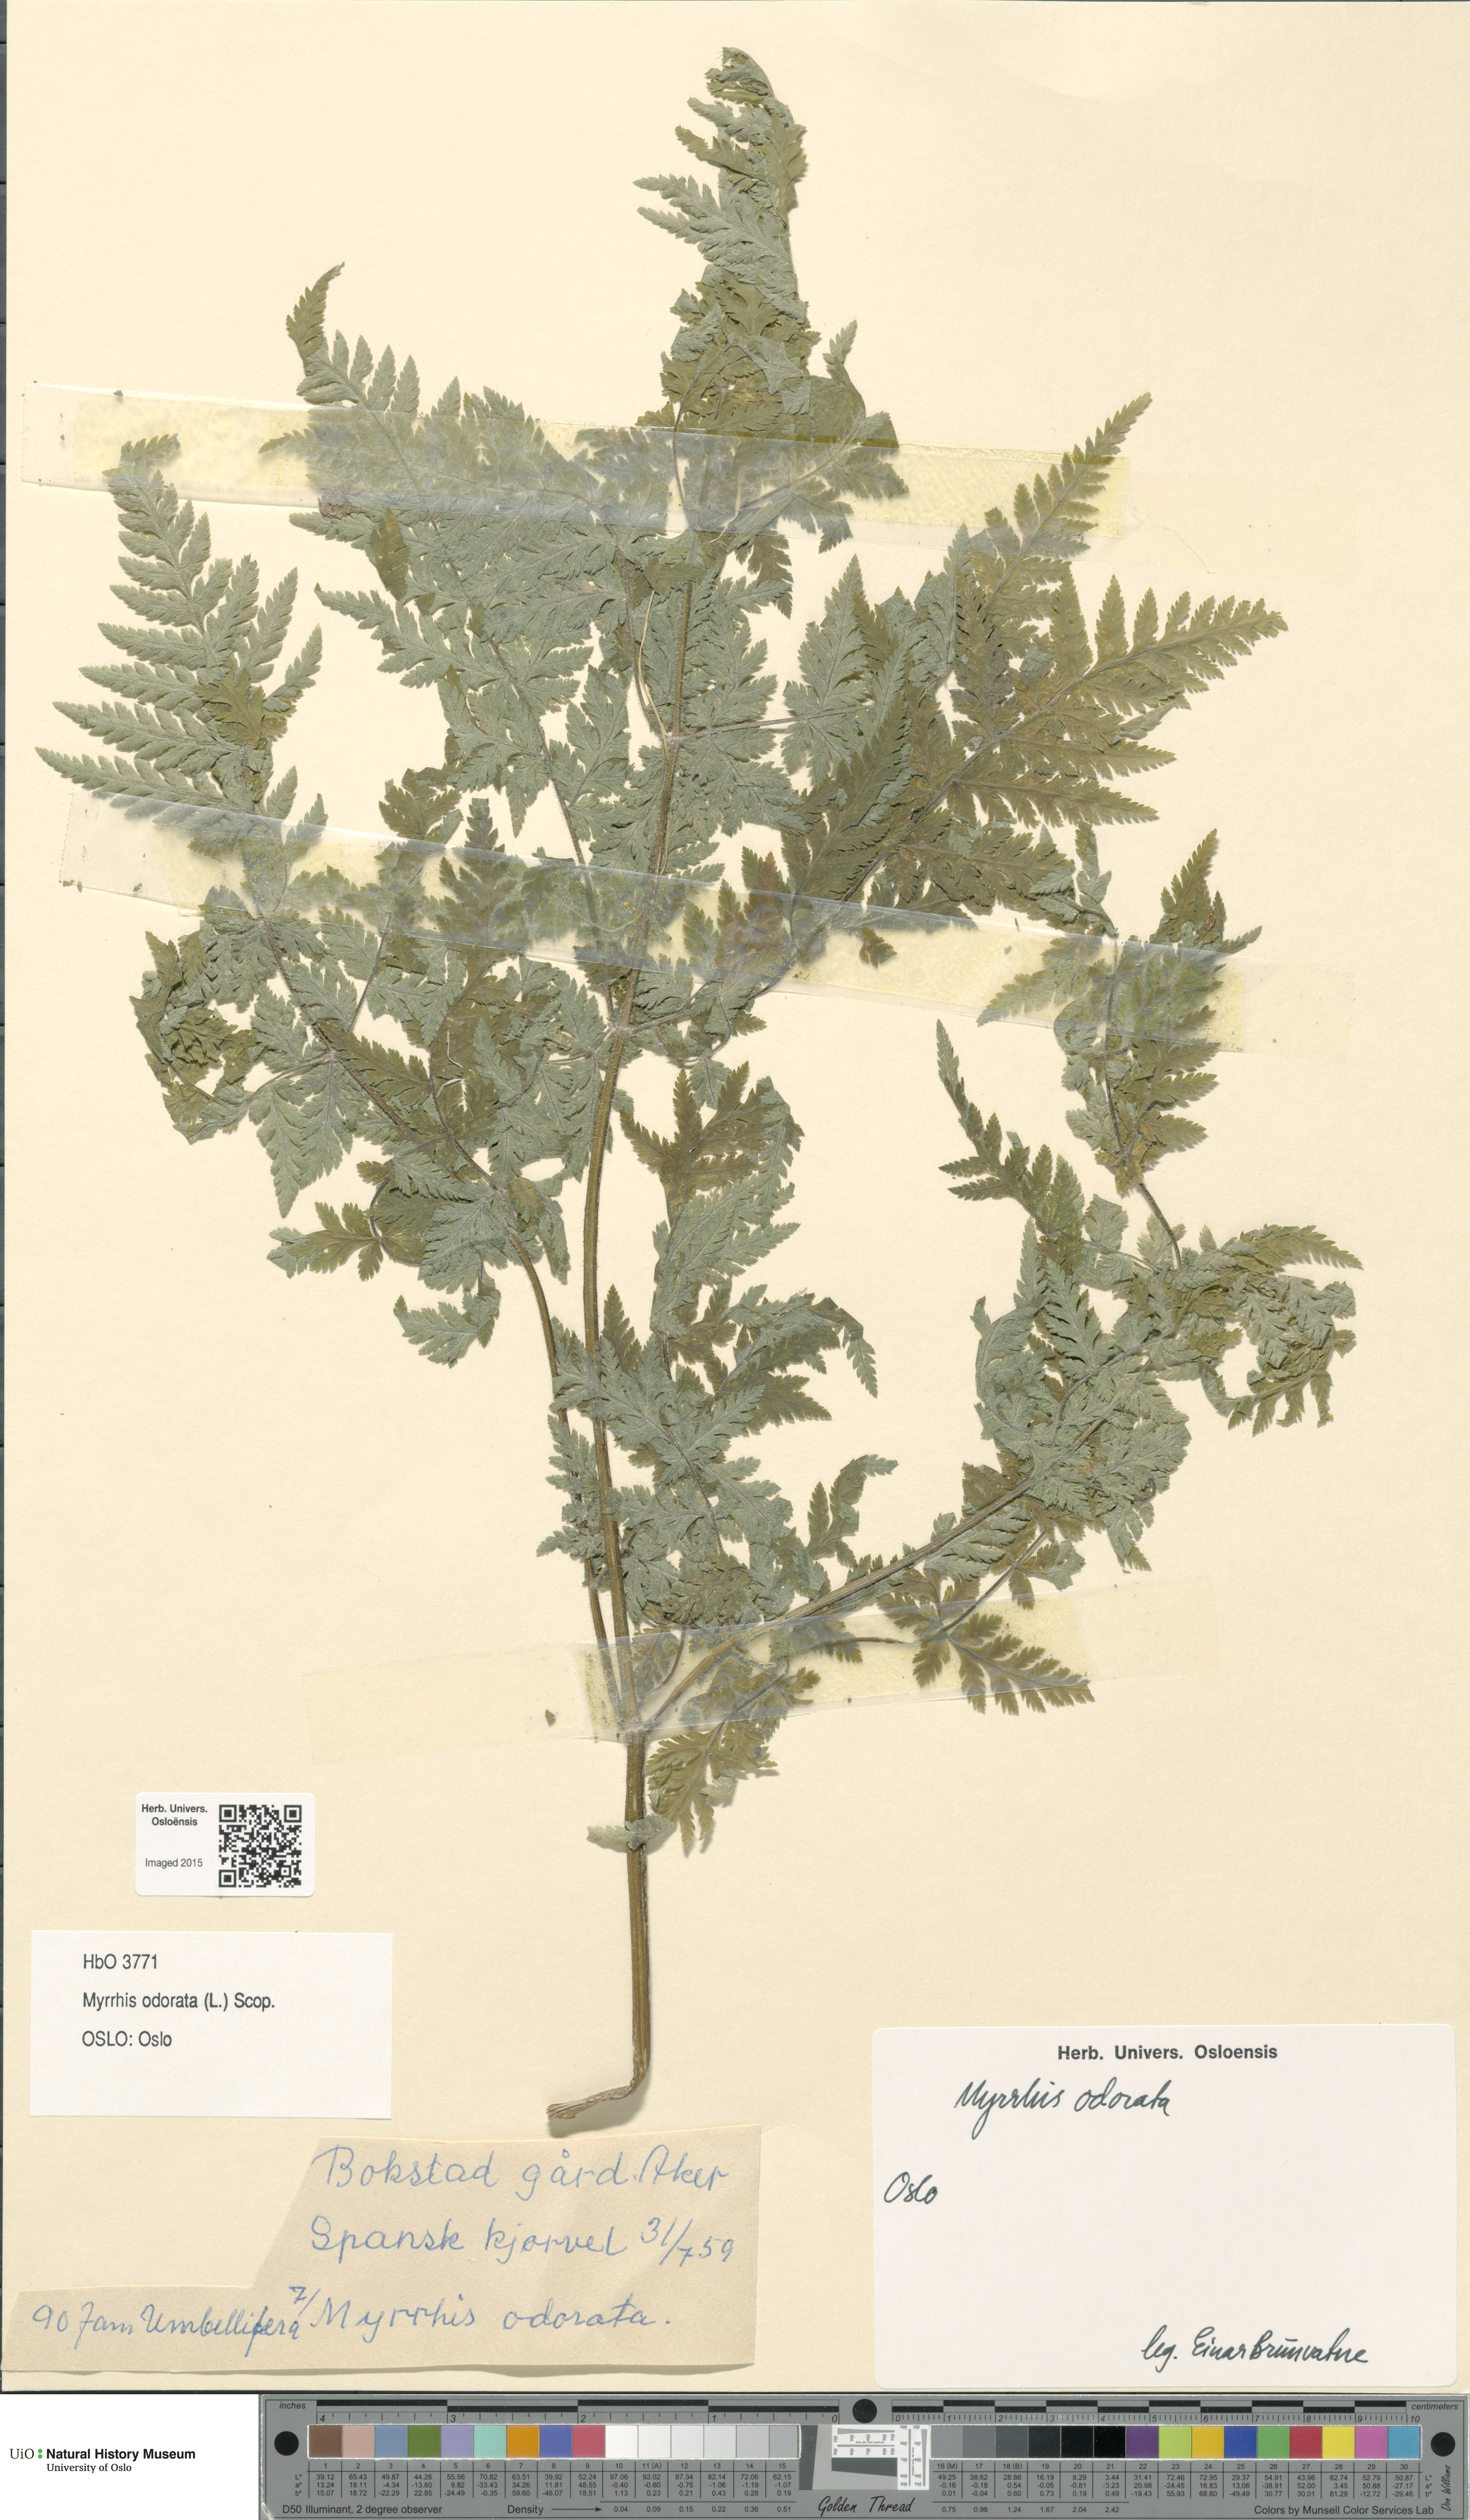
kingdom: Plantae
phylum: Tracheophyta
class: Magnoliopsida
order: Apiales
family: Apiaceae
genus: Myrrhis
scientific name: Myrrhis odorata
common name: Sweet cicely
